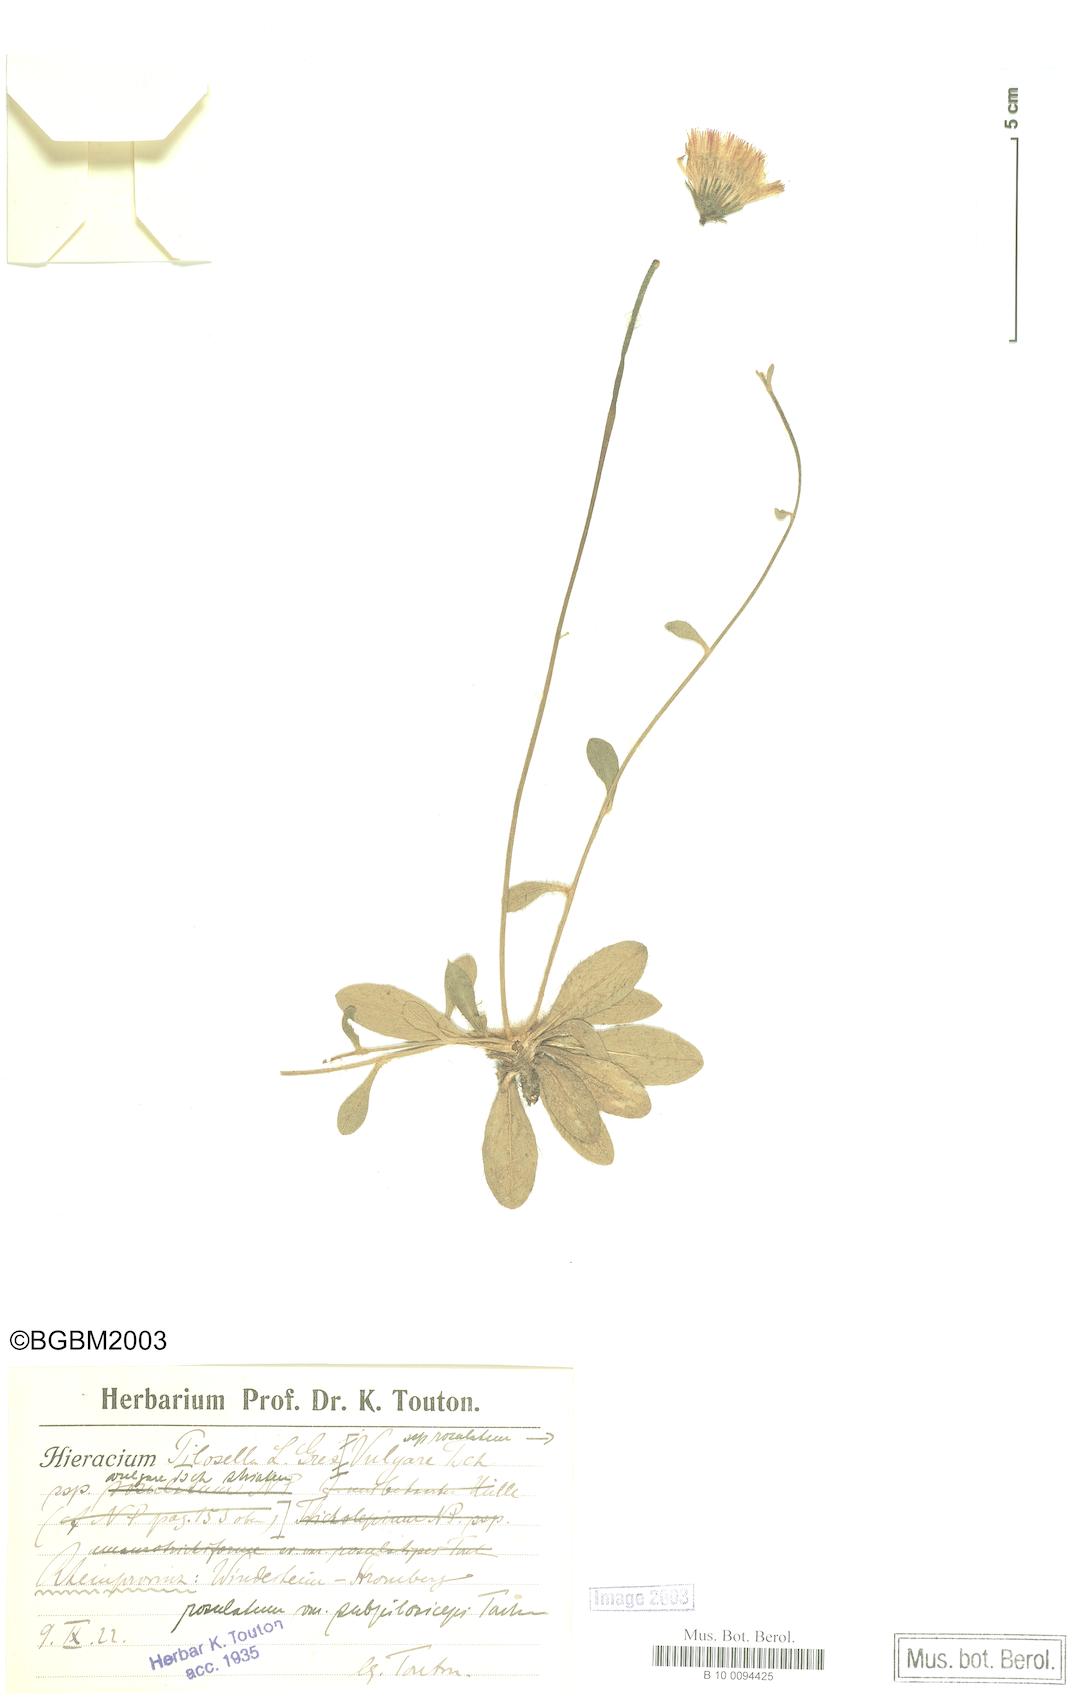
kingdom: Plantae
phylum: Tracheophyta
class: Magnoliopsida
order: Asterales
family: Asteraceae
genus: Pilosella
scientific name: Pilosella officinarum
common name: Mouse-ear hawkweed
